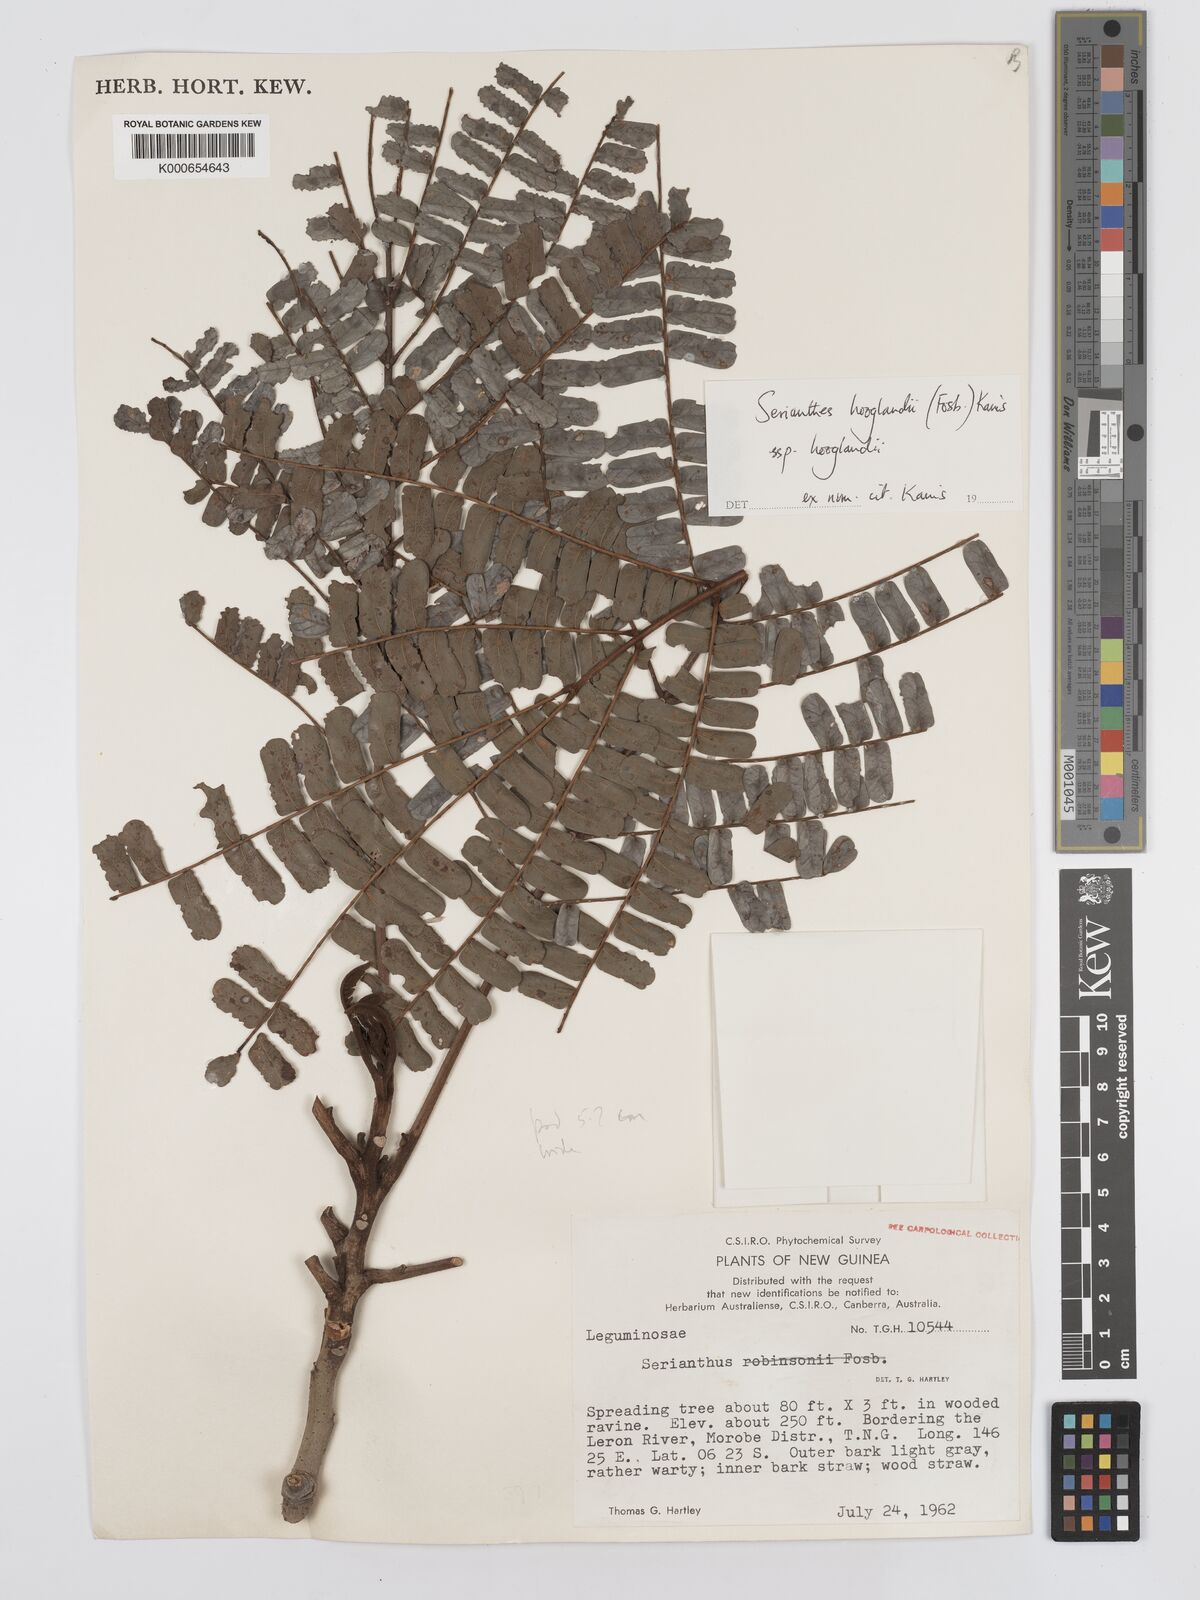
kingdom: Plantae
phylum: Tracheophyta
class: Magnoliopsida
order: Fabales
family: Fabaceae
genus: Serianthes
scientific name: Serianthes hooglandii
